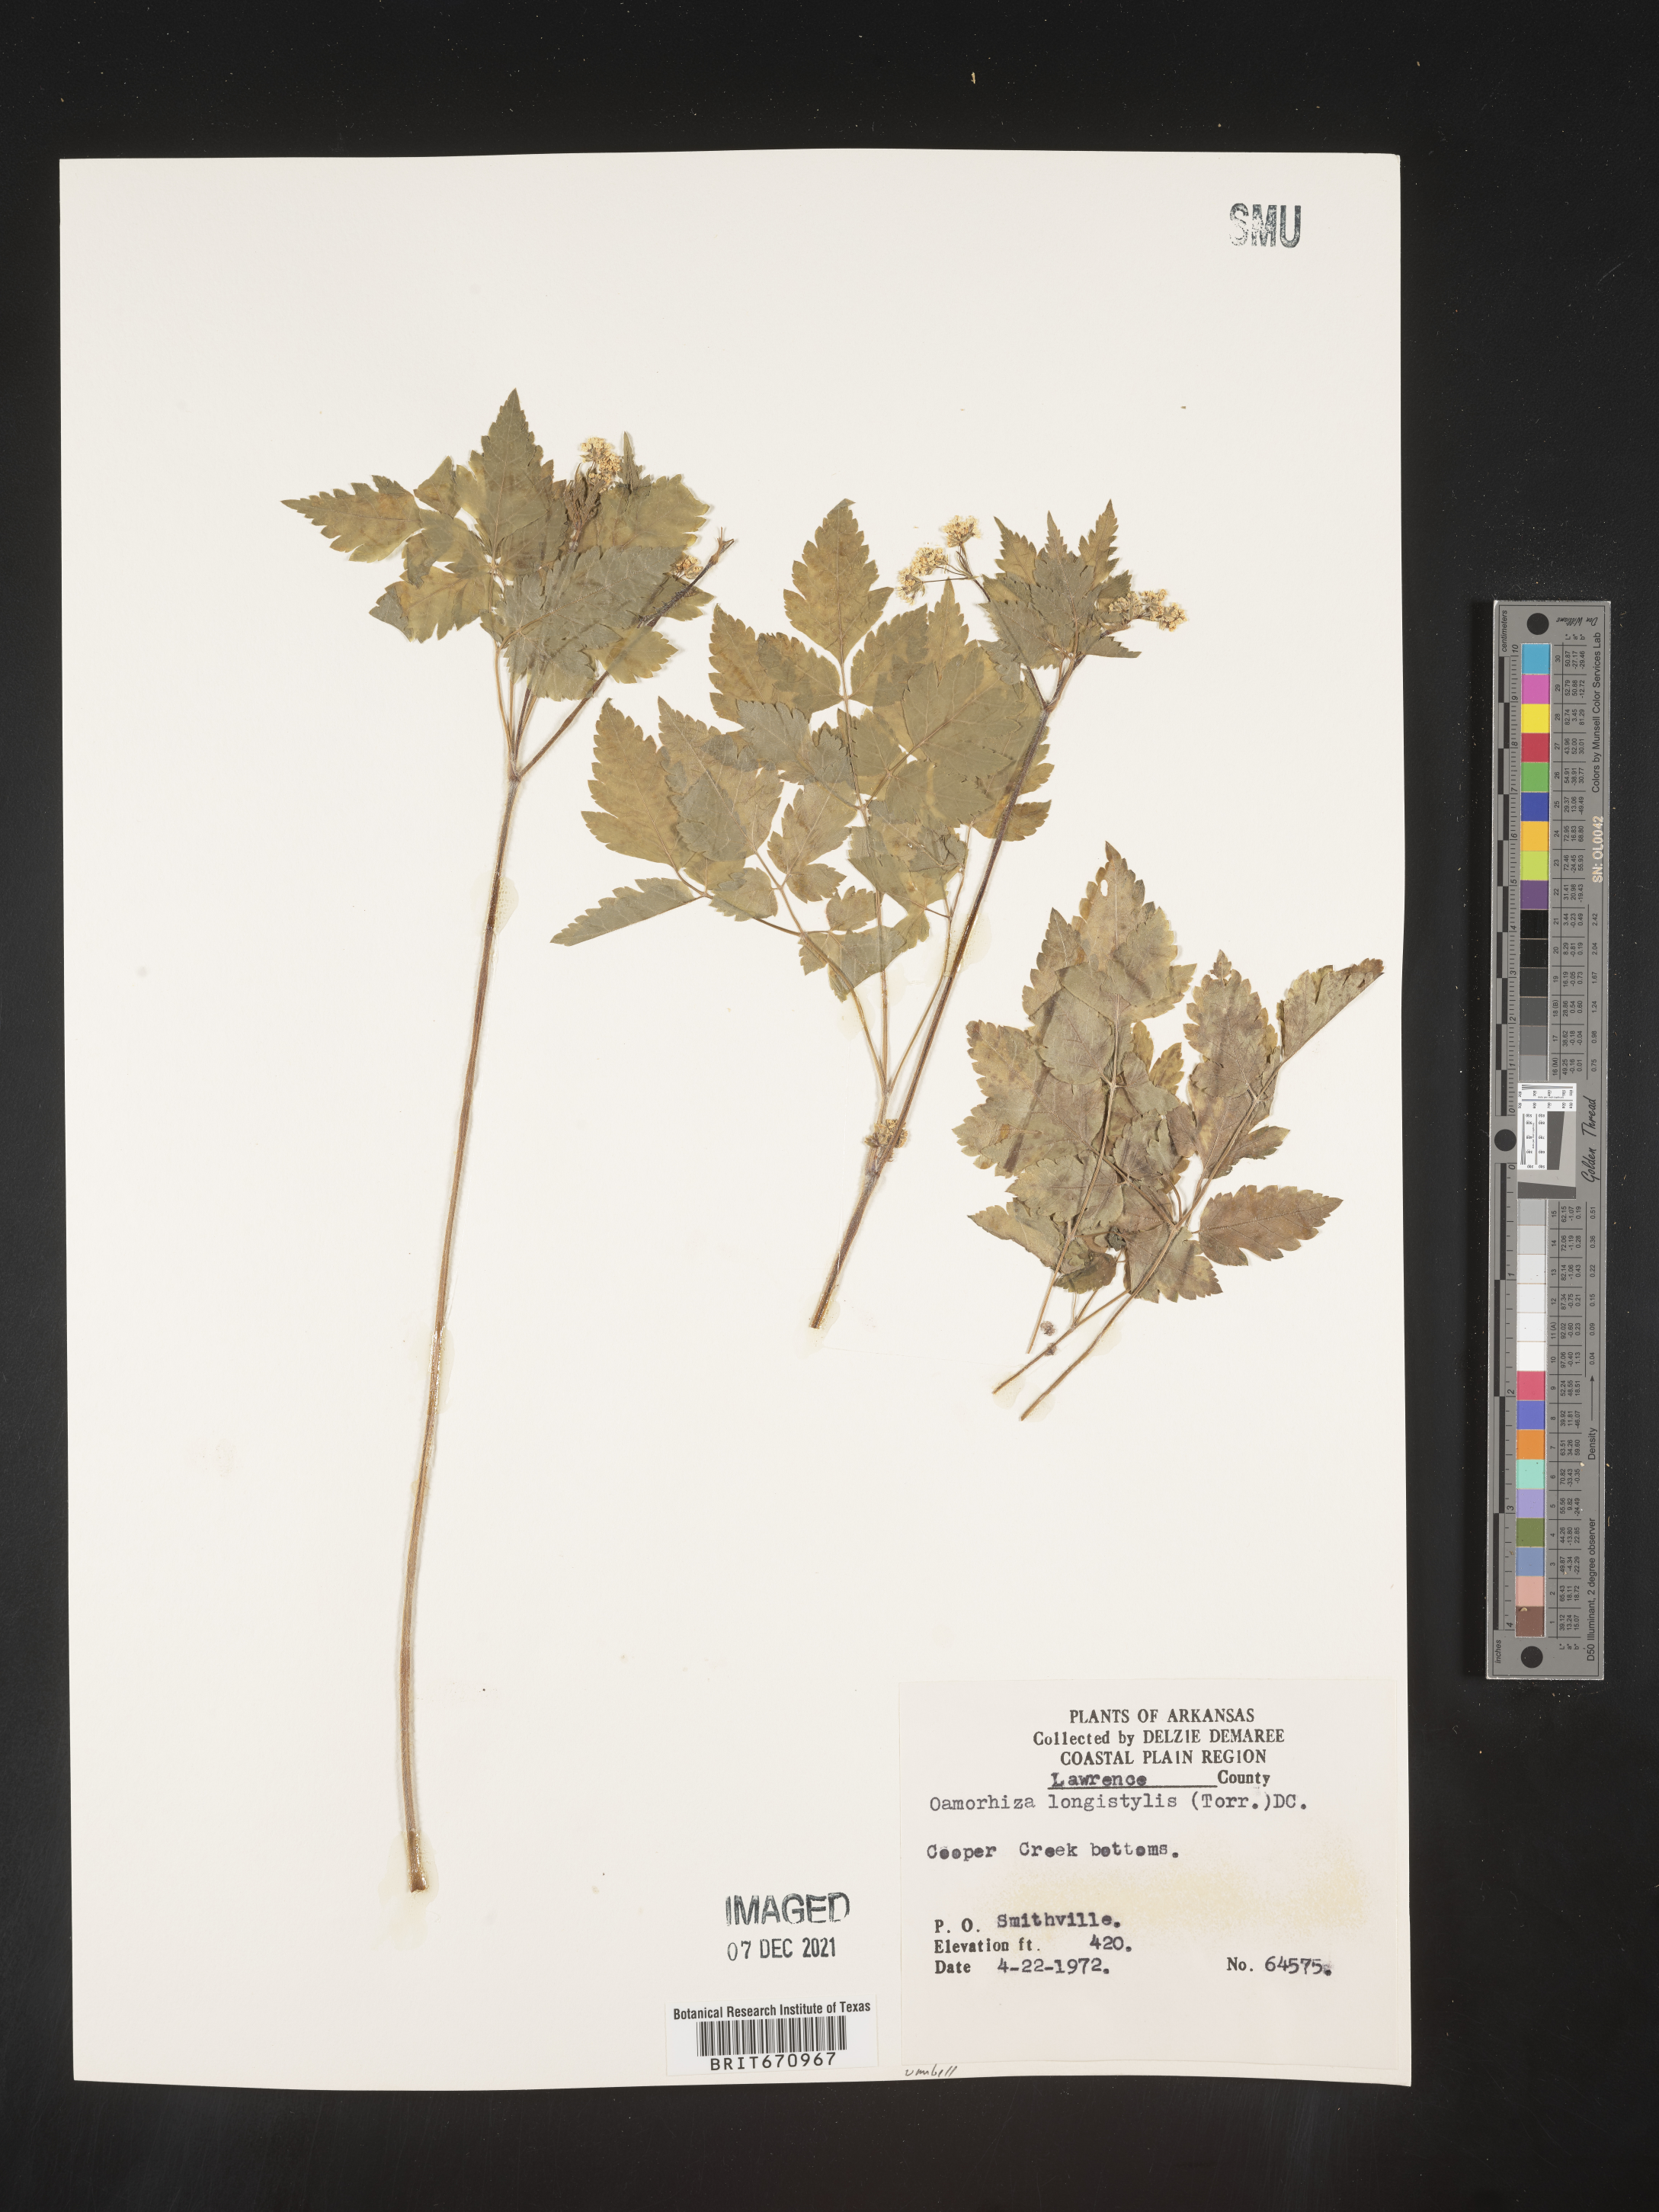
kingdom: Plantae
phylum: Tracheophyta
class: Magnoliopsida
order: Apiales
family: Apiaceae
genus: Osmorhiza
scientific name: Osmorhiza longistylis
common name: Smooth sweet cicely
